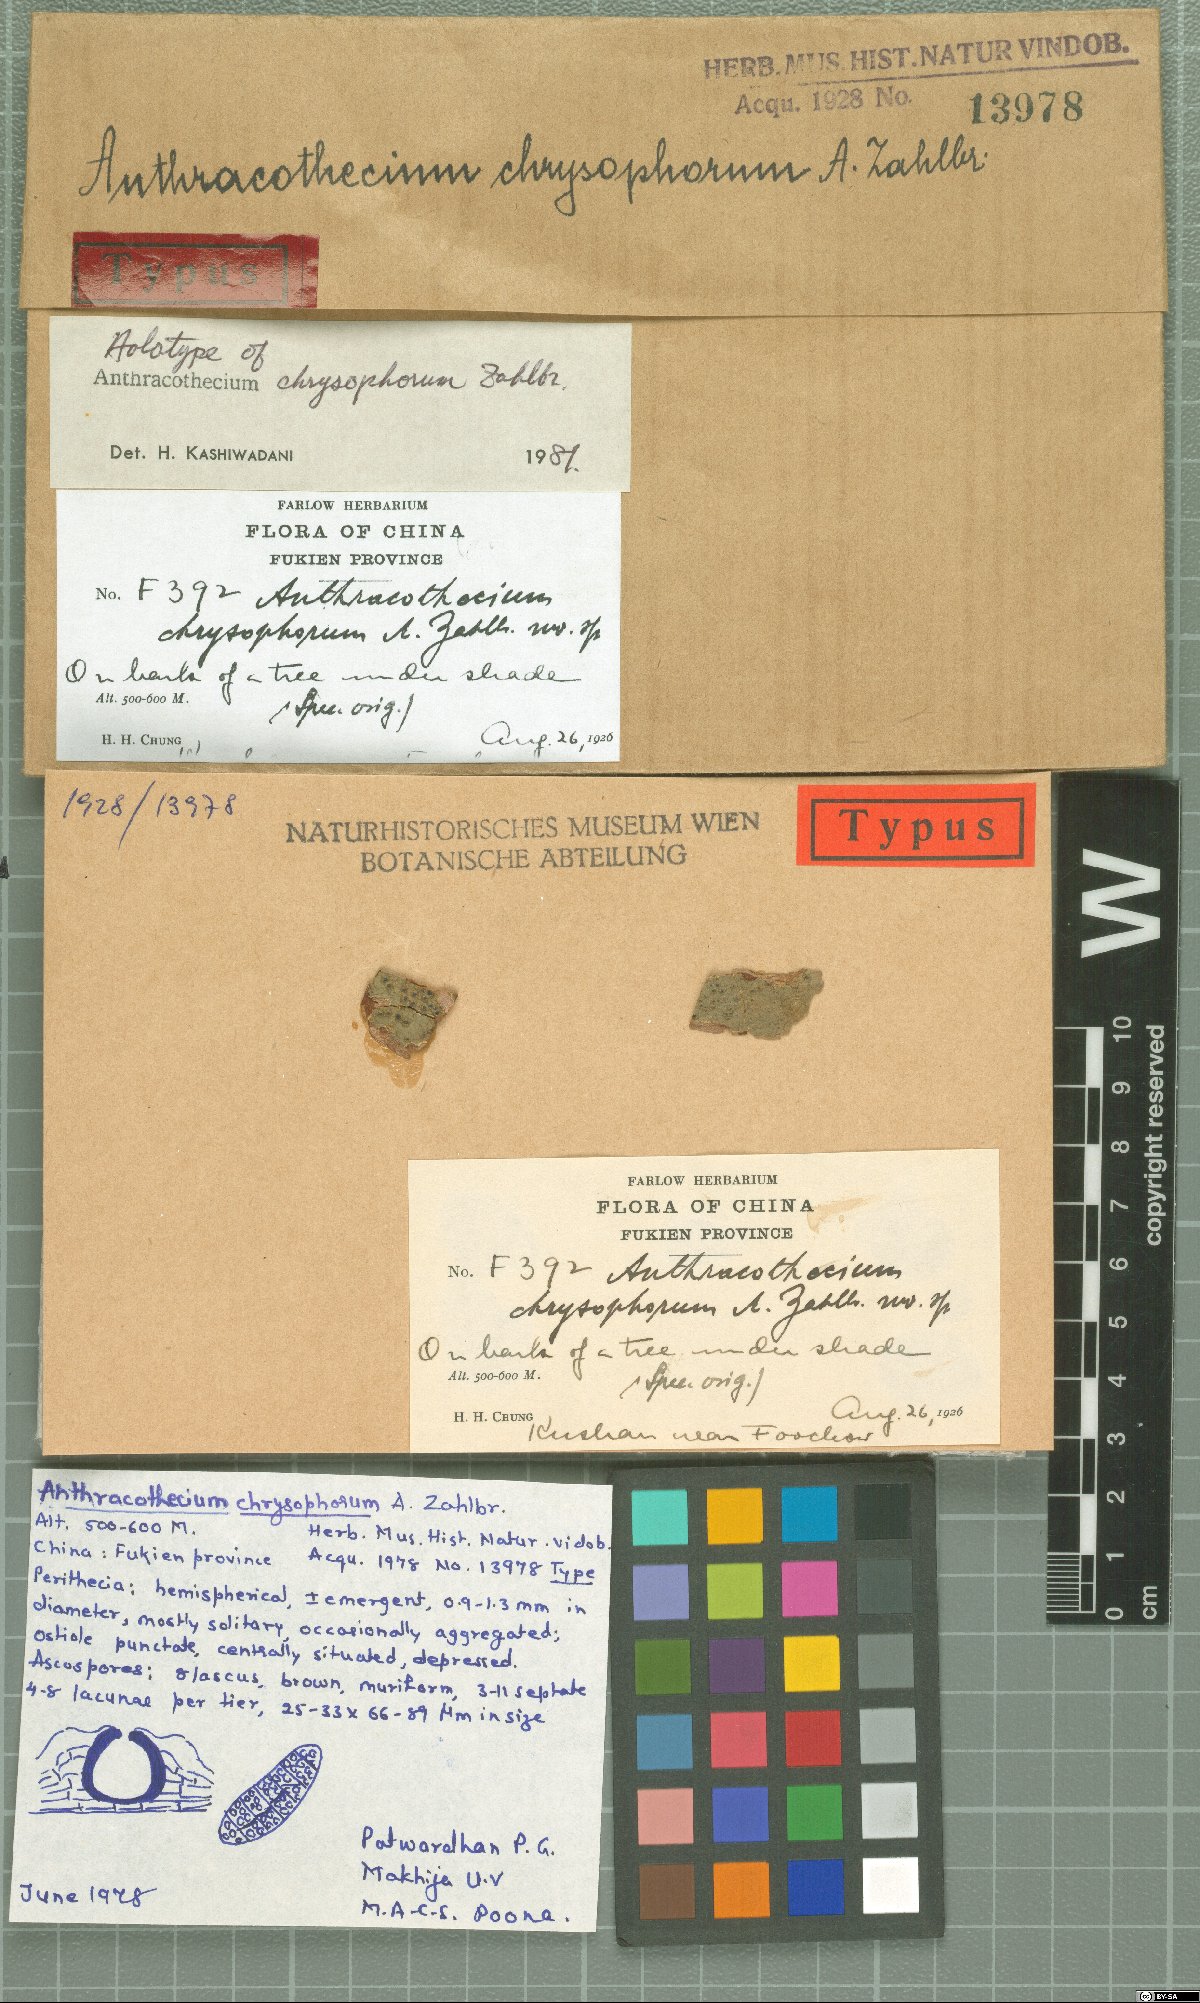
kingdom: Fungi
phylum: Ascomycota
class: Eurotiomycetes
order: Pyrenulales
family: Pyrenulaceae
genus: Anthracothecium
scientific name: Anthracothecium
